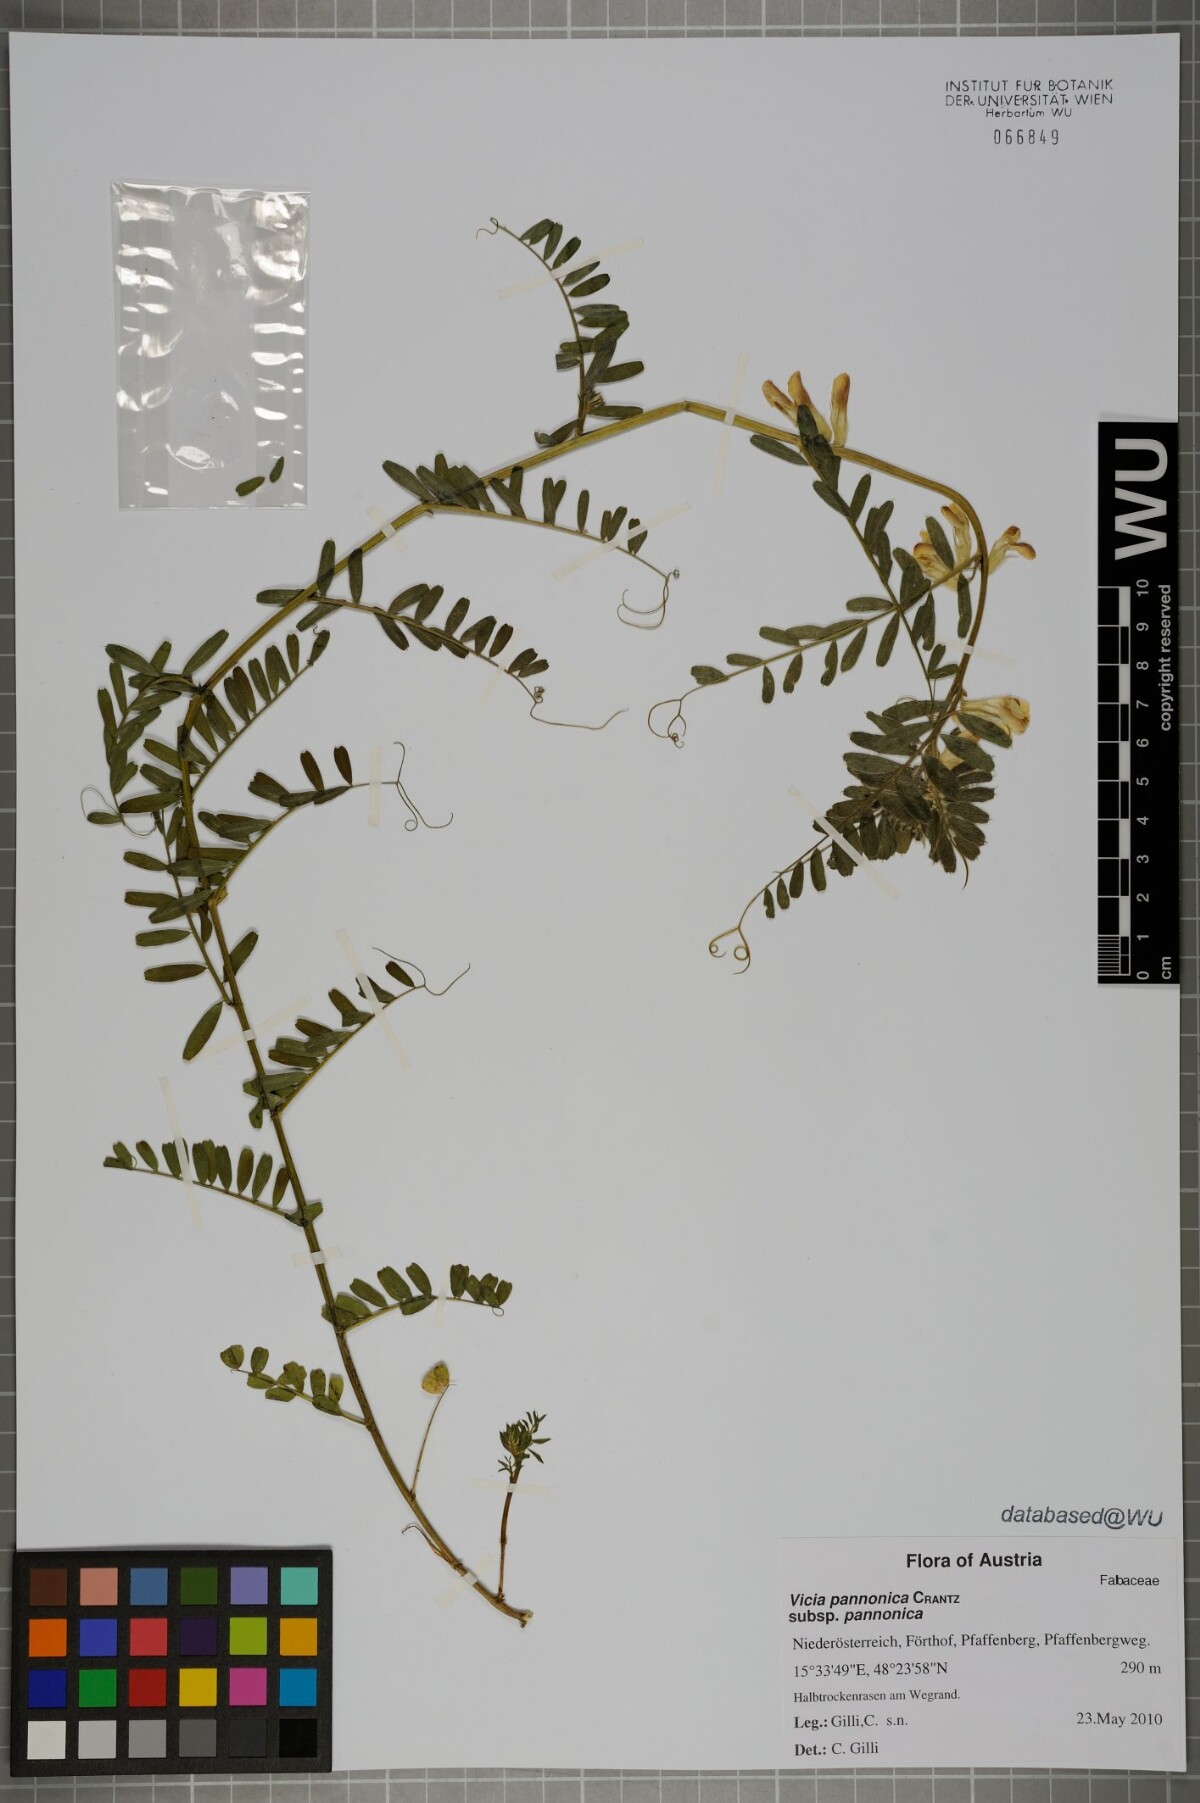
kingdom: Plantae
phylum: Tracheophyta
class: Magnoliopsida
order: Fabales
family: Fabaceae
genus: Vicia
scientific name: Vicia pannonica
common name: Hungarian vetch
